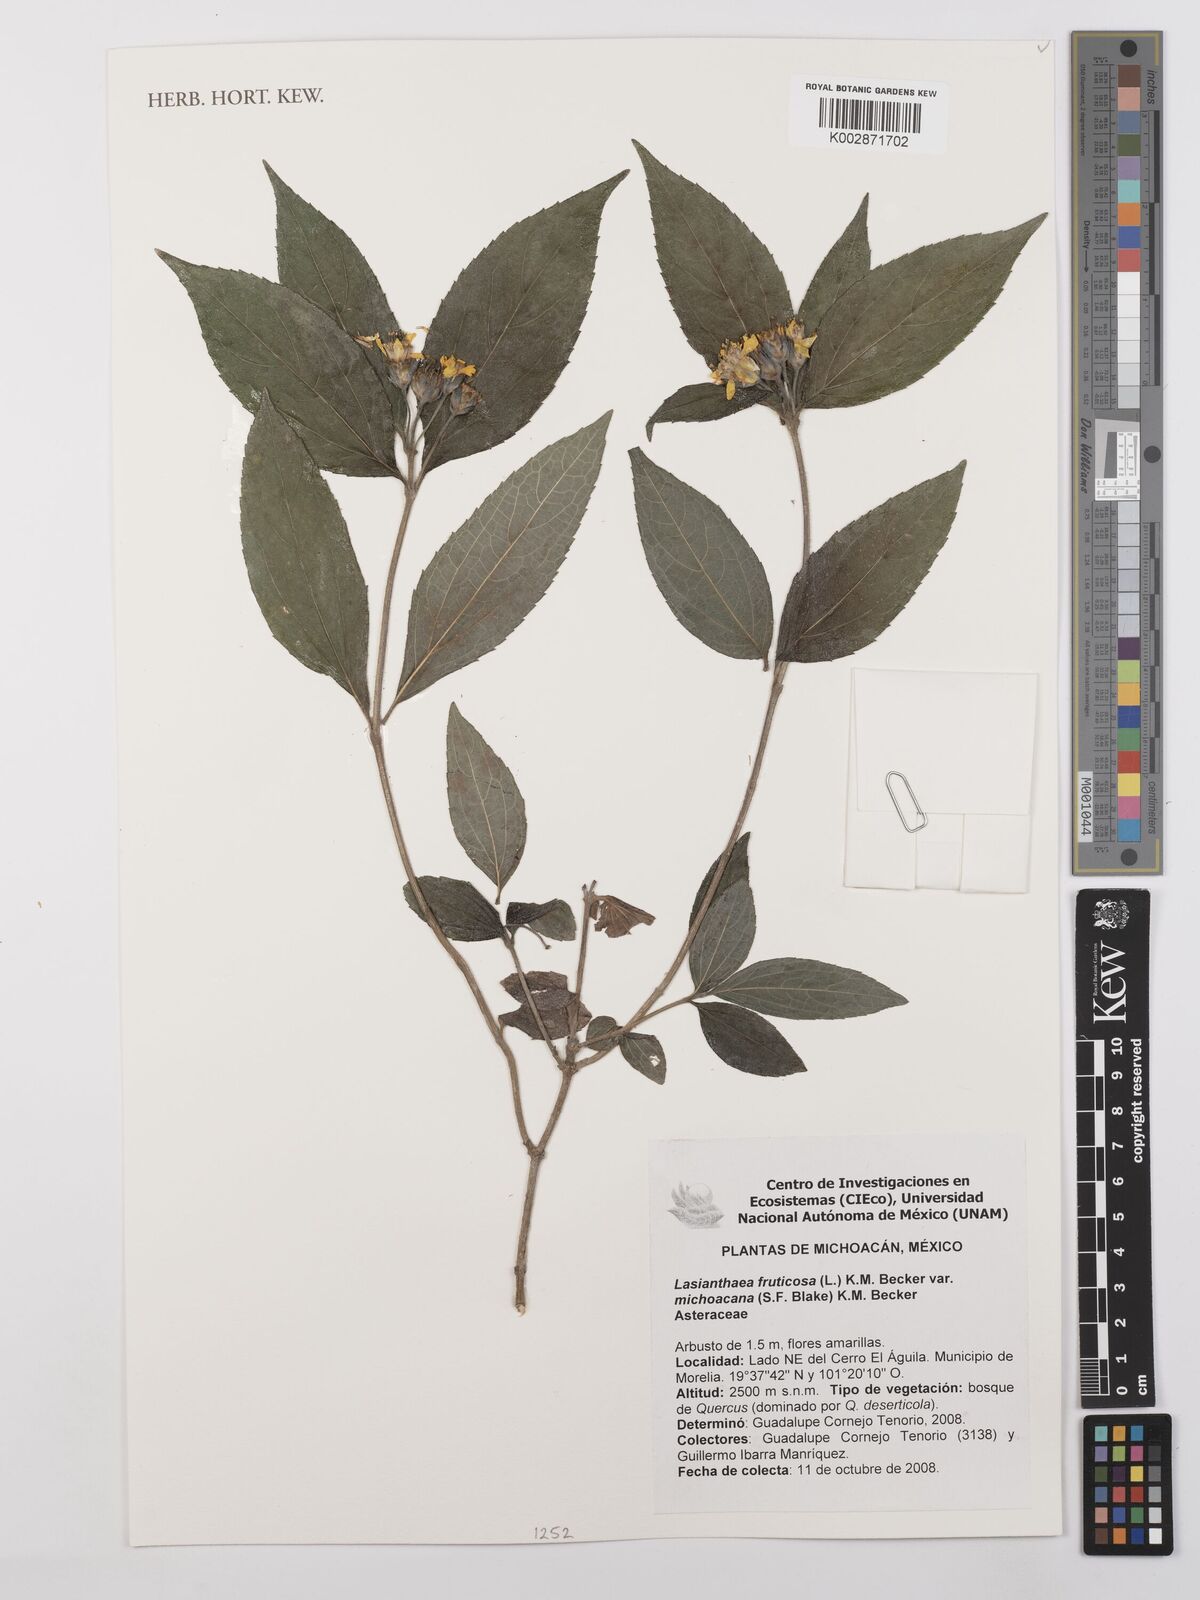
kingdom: Plantae
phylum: Tracheophyta
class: Magnoliopsida
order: Asterales
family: Asteraceae
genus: Lasianthaea
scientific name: Lasianthaea fruticosa
